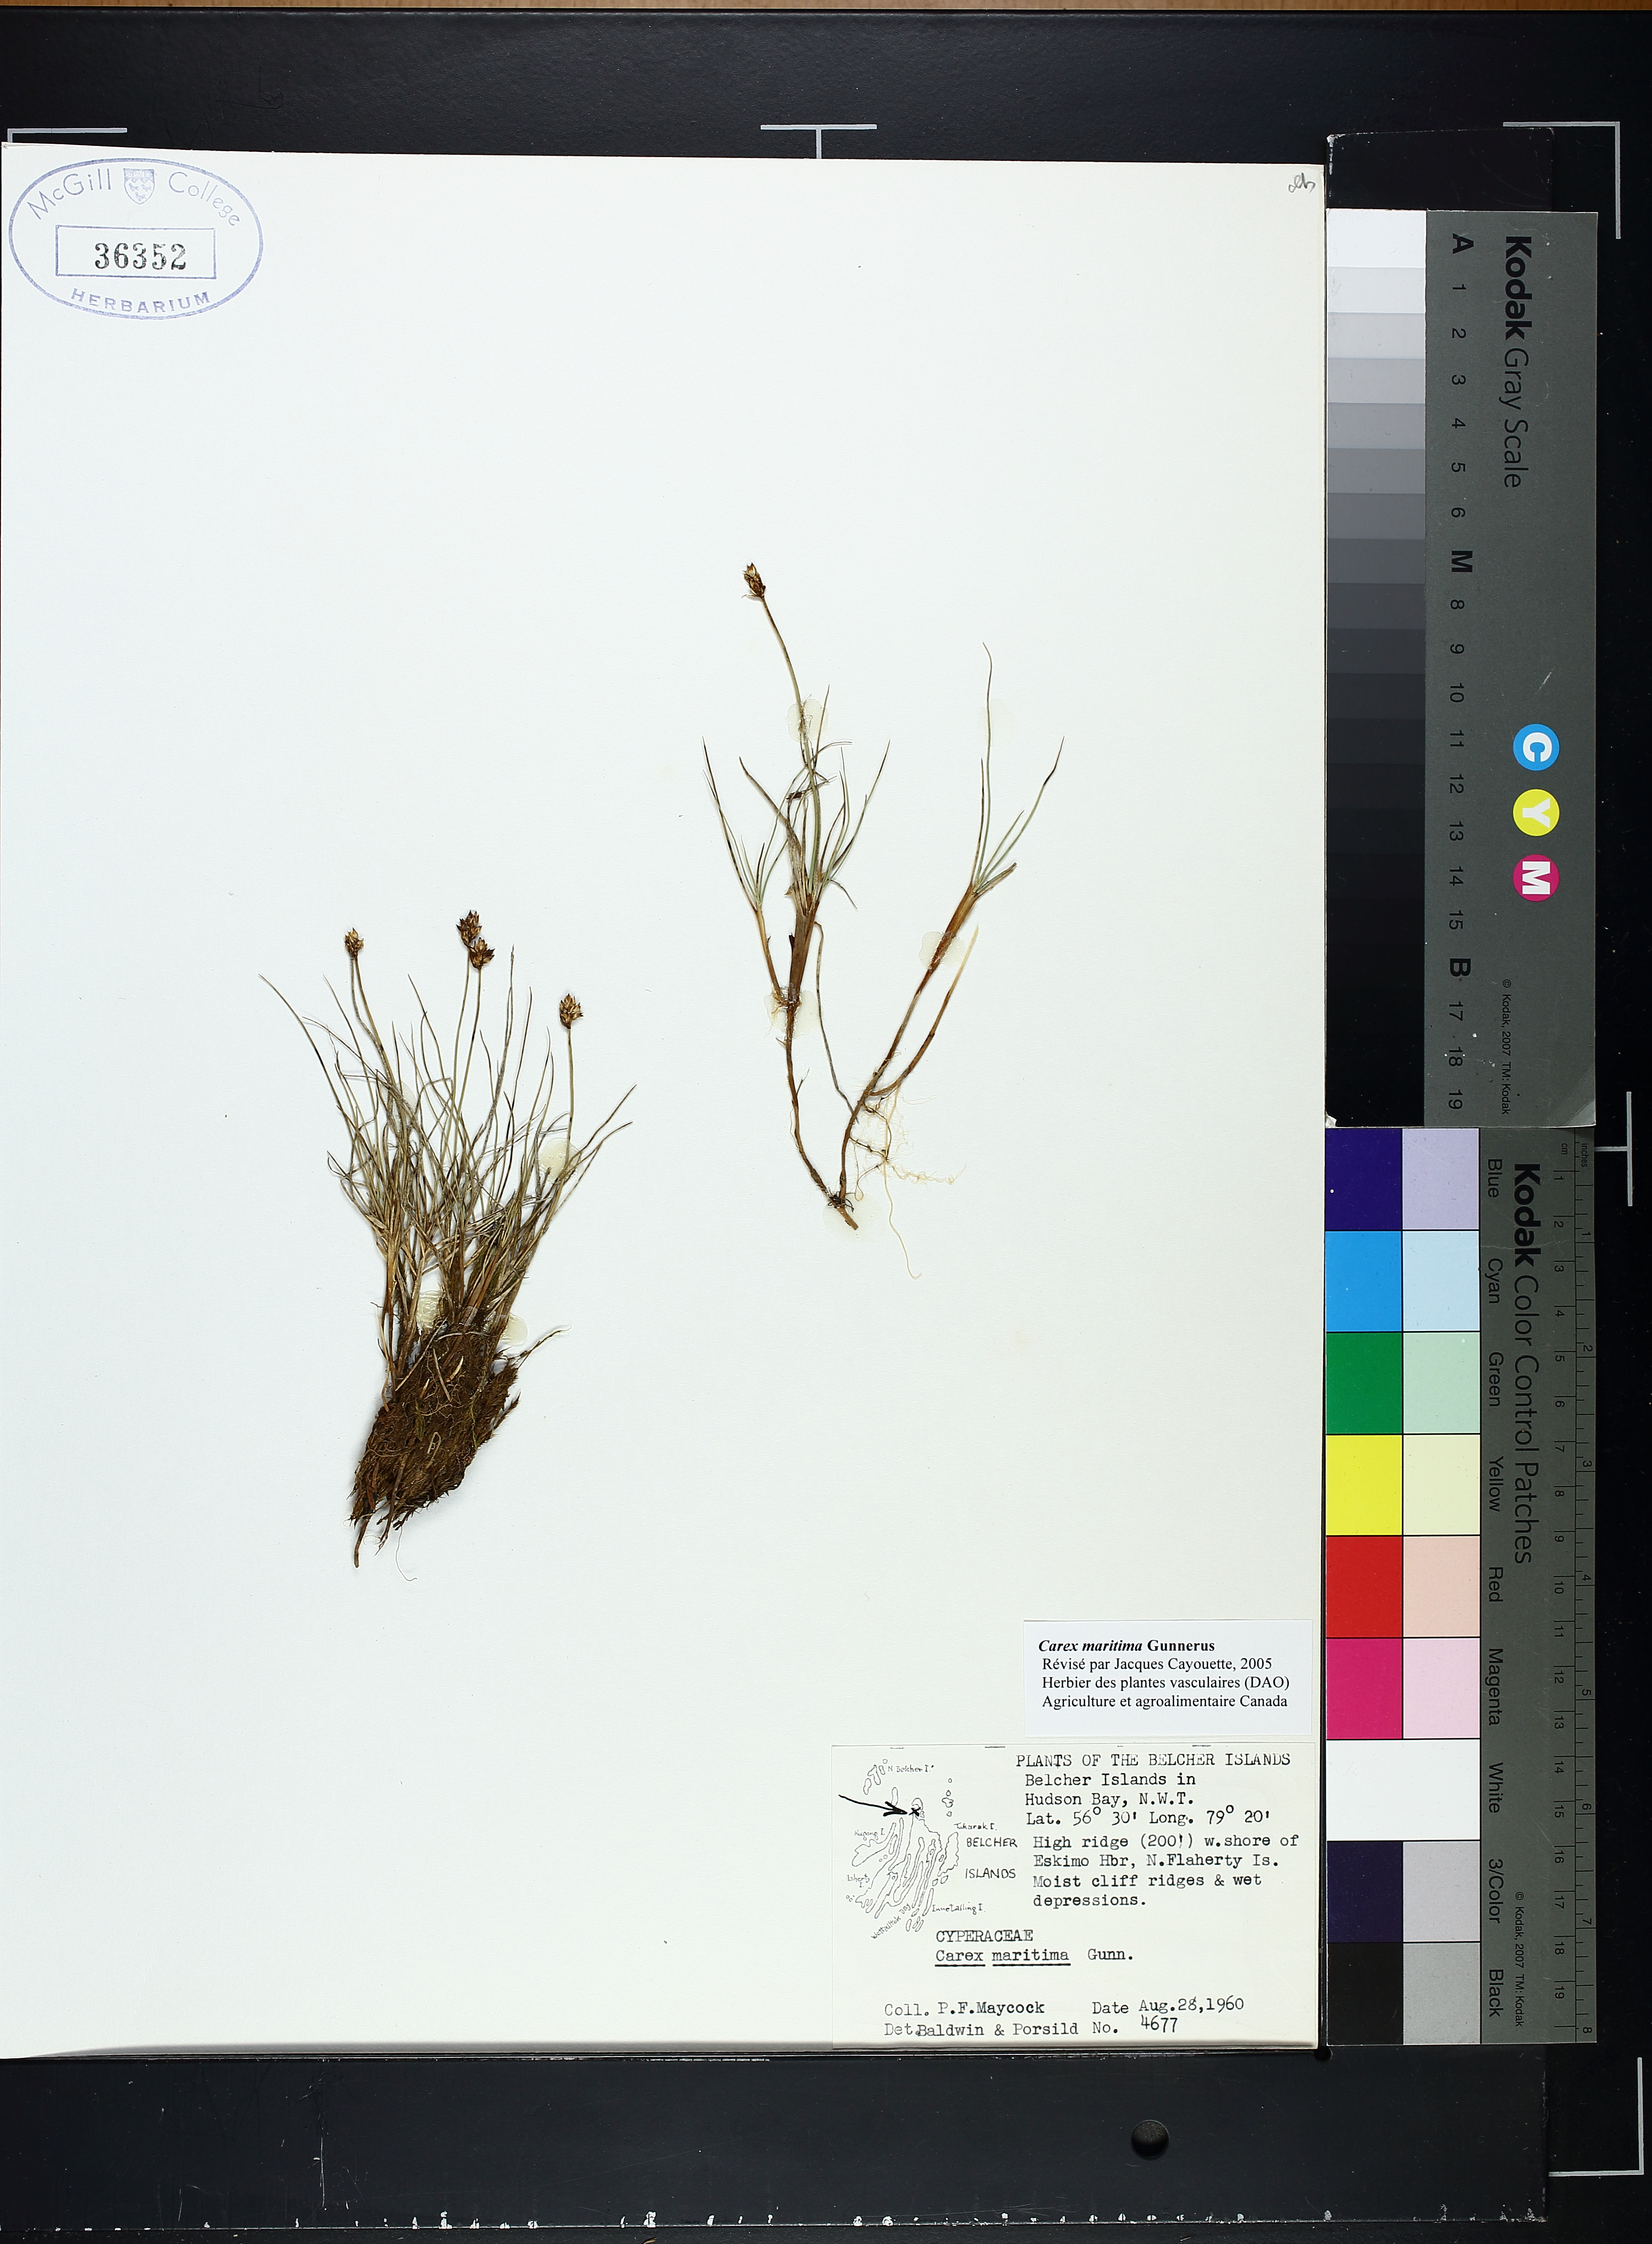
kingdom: Plantae
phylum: Tracheophyta
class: Liliopsida
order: Poales
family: Cyperaceae
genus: Carex
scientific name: Carex maritima
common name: Curved sedge
